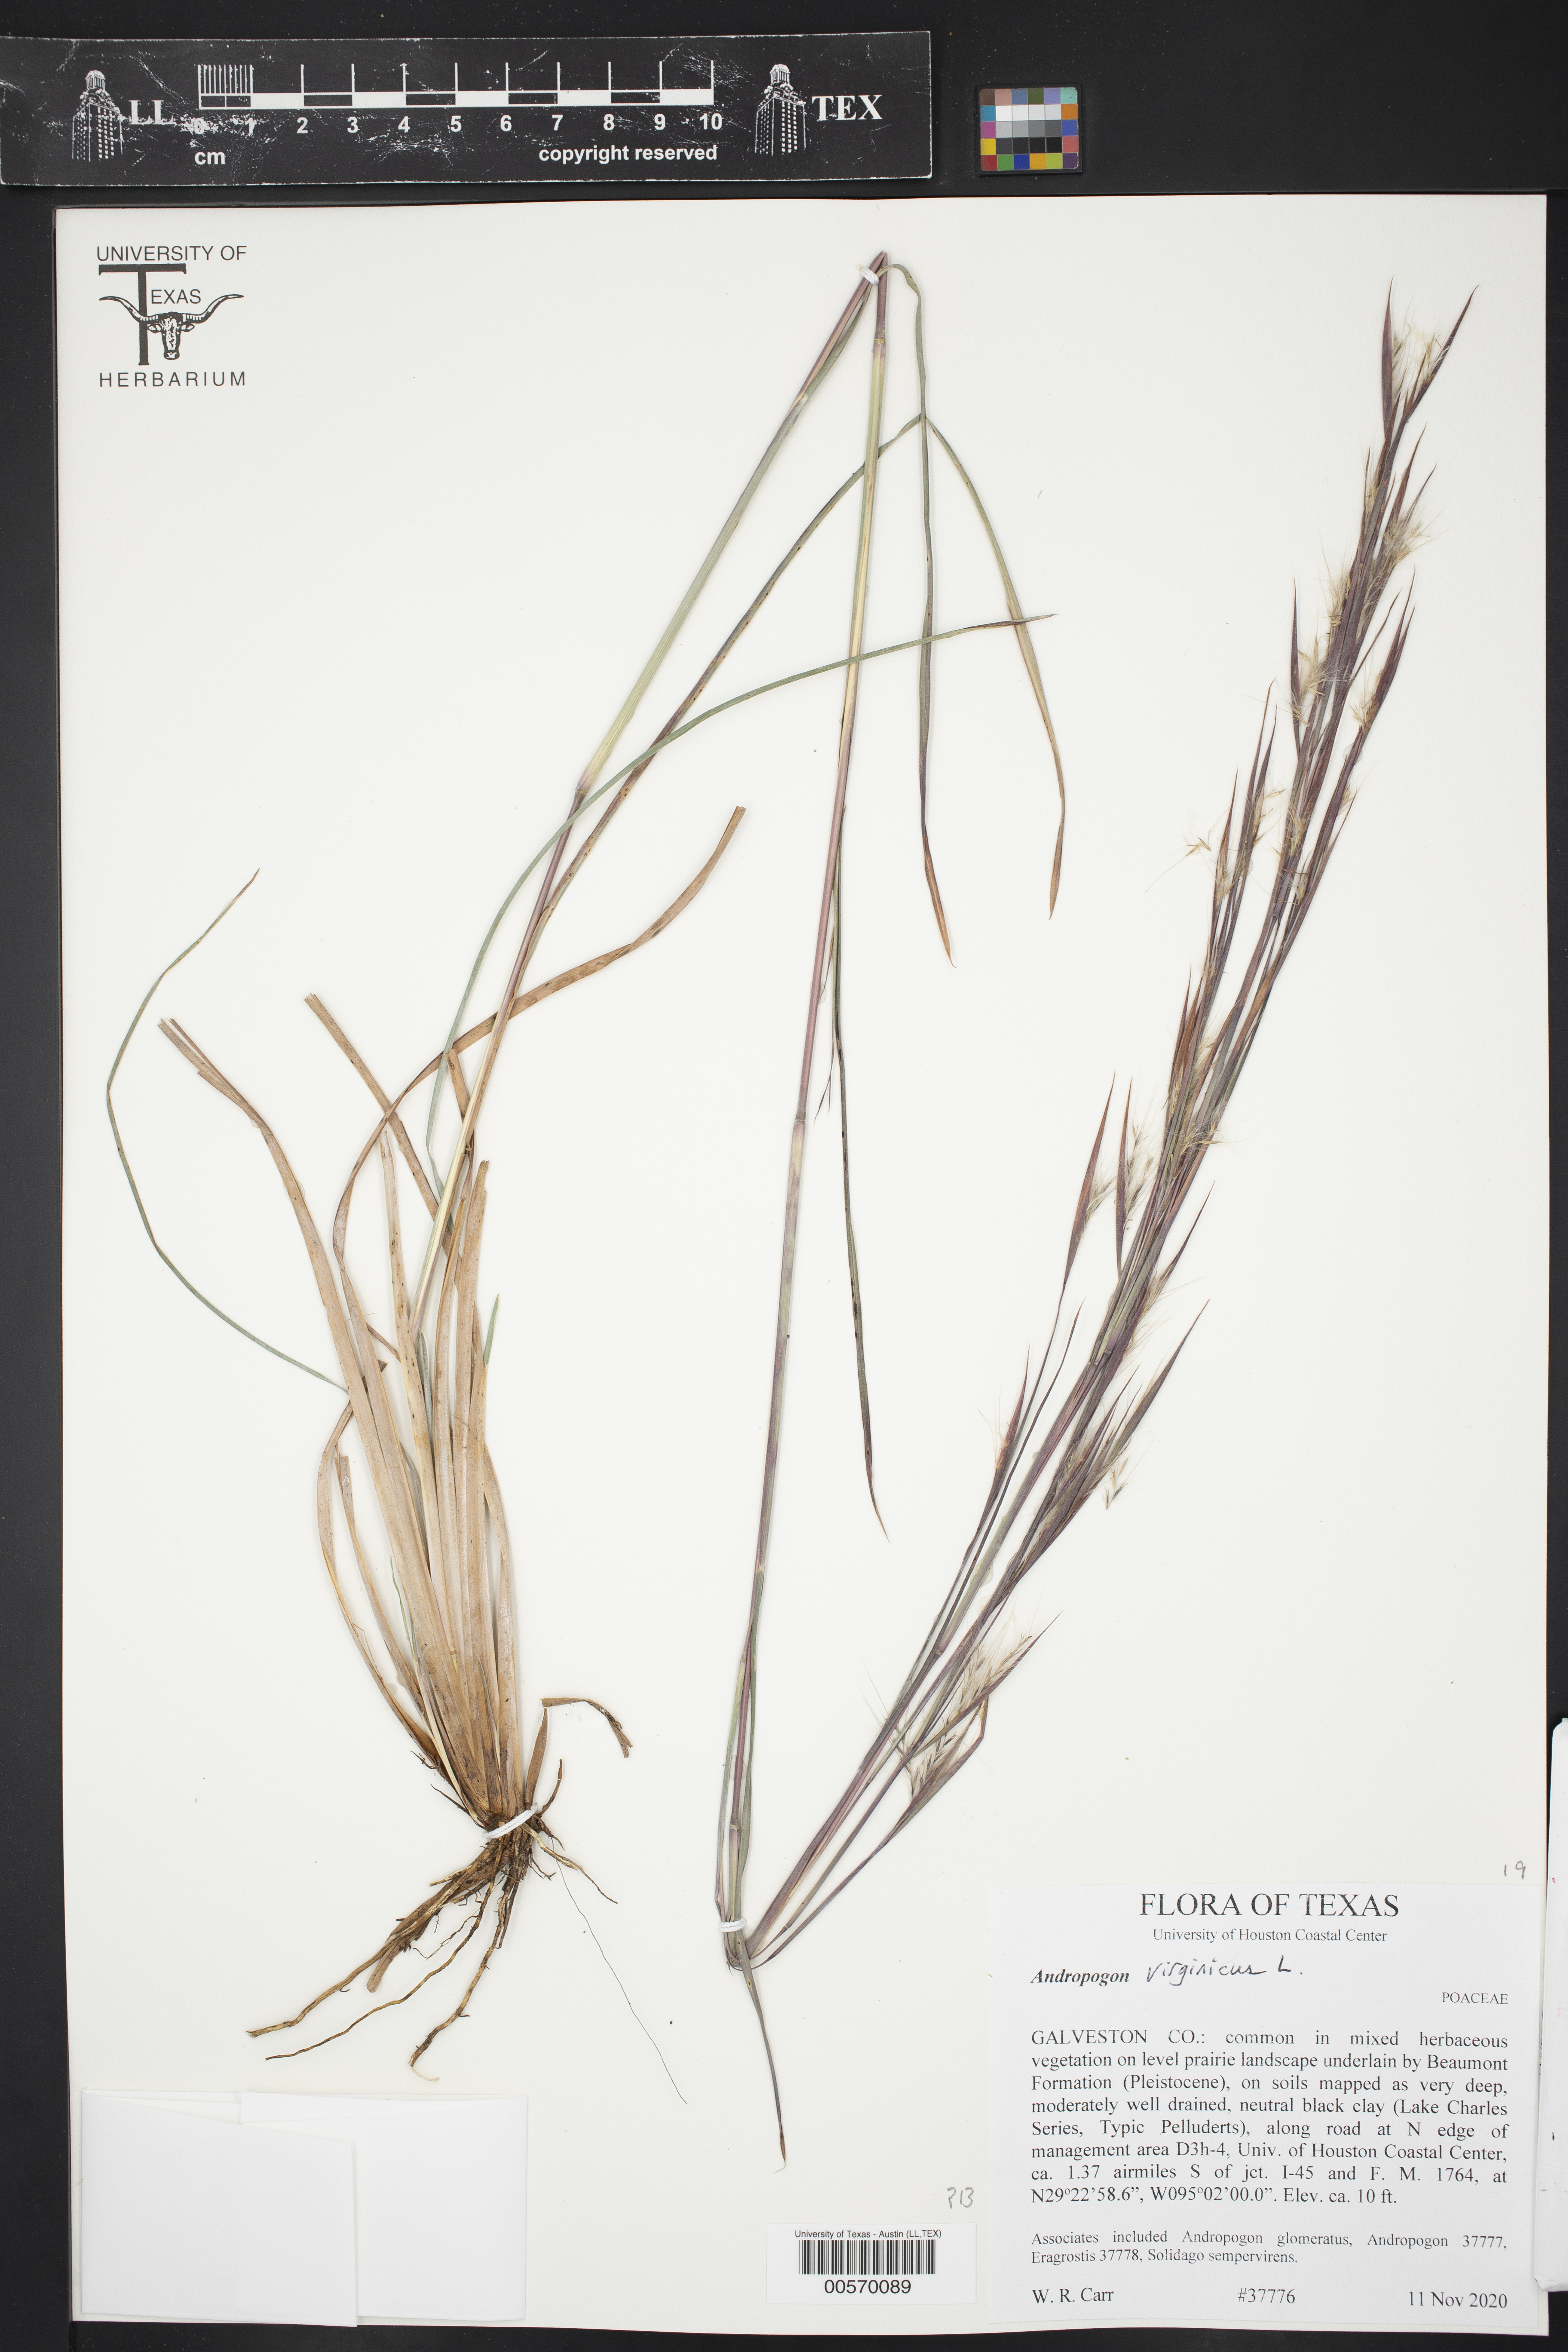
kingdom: Plantae
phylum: Tracheophyta
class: Liliopsida
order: Poales
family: Poaceae
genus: Andropogon
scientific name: Andropogon virginicus
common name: Broomsedge bluestem
